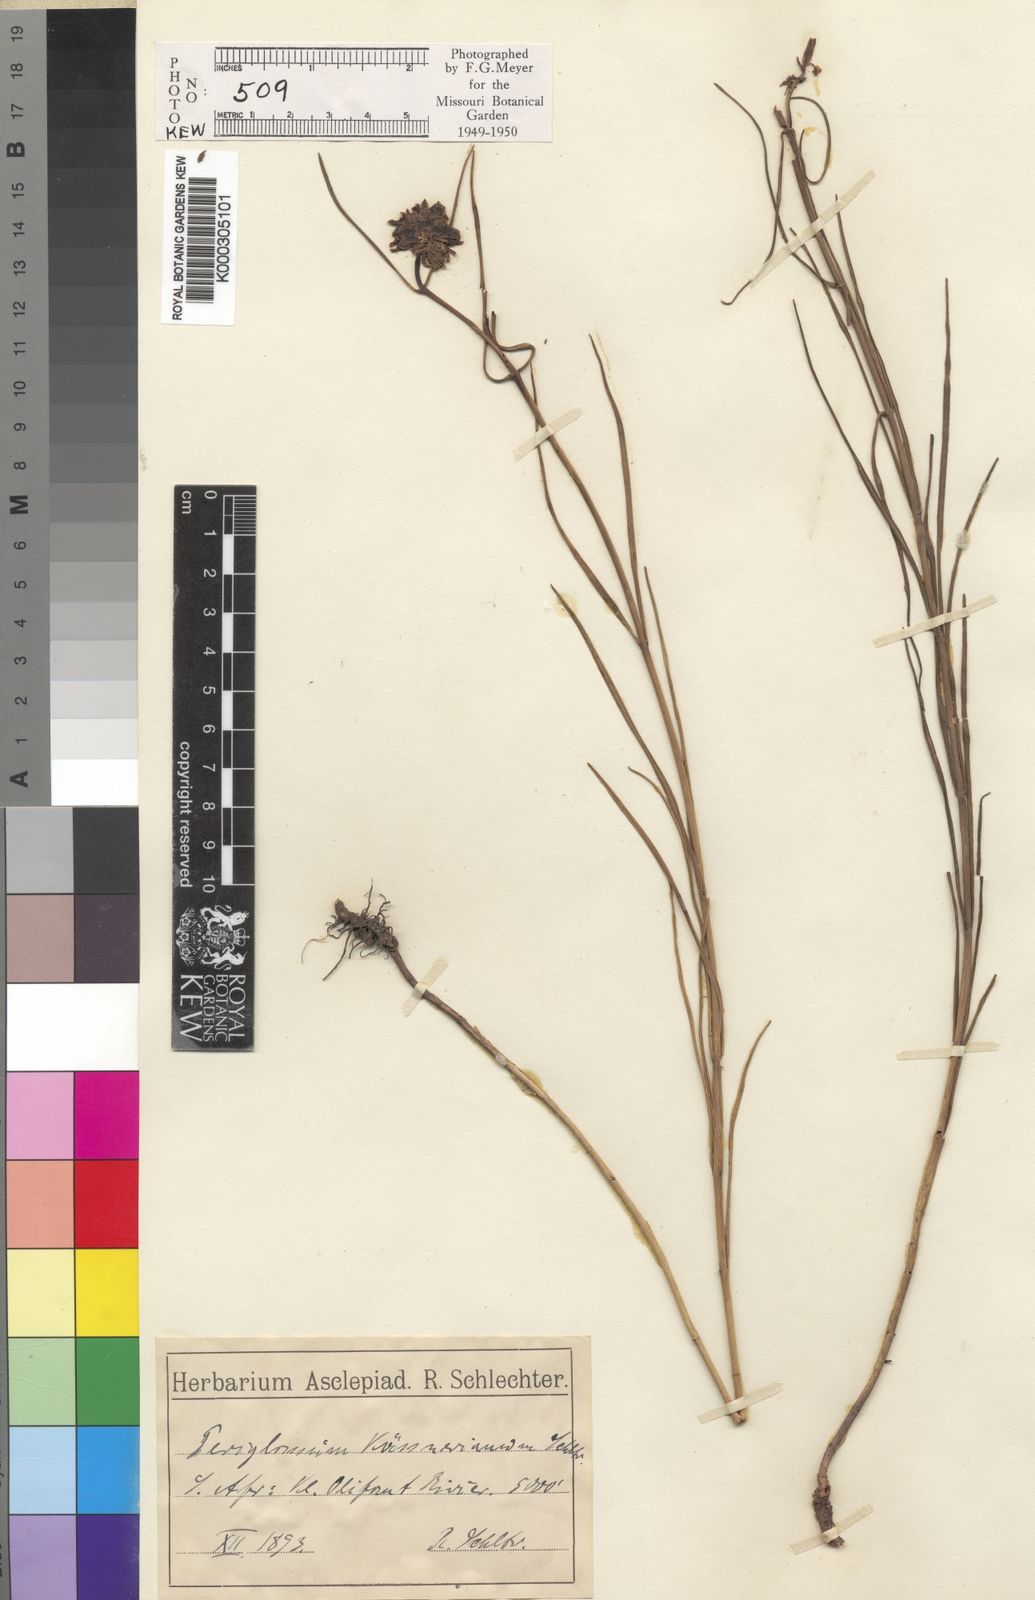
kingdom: Plantae
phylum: Tracheophyta
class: Magnoliopsida
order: Gentianales
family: Apocynaceae
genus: Periglossum
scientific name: Periglossum
